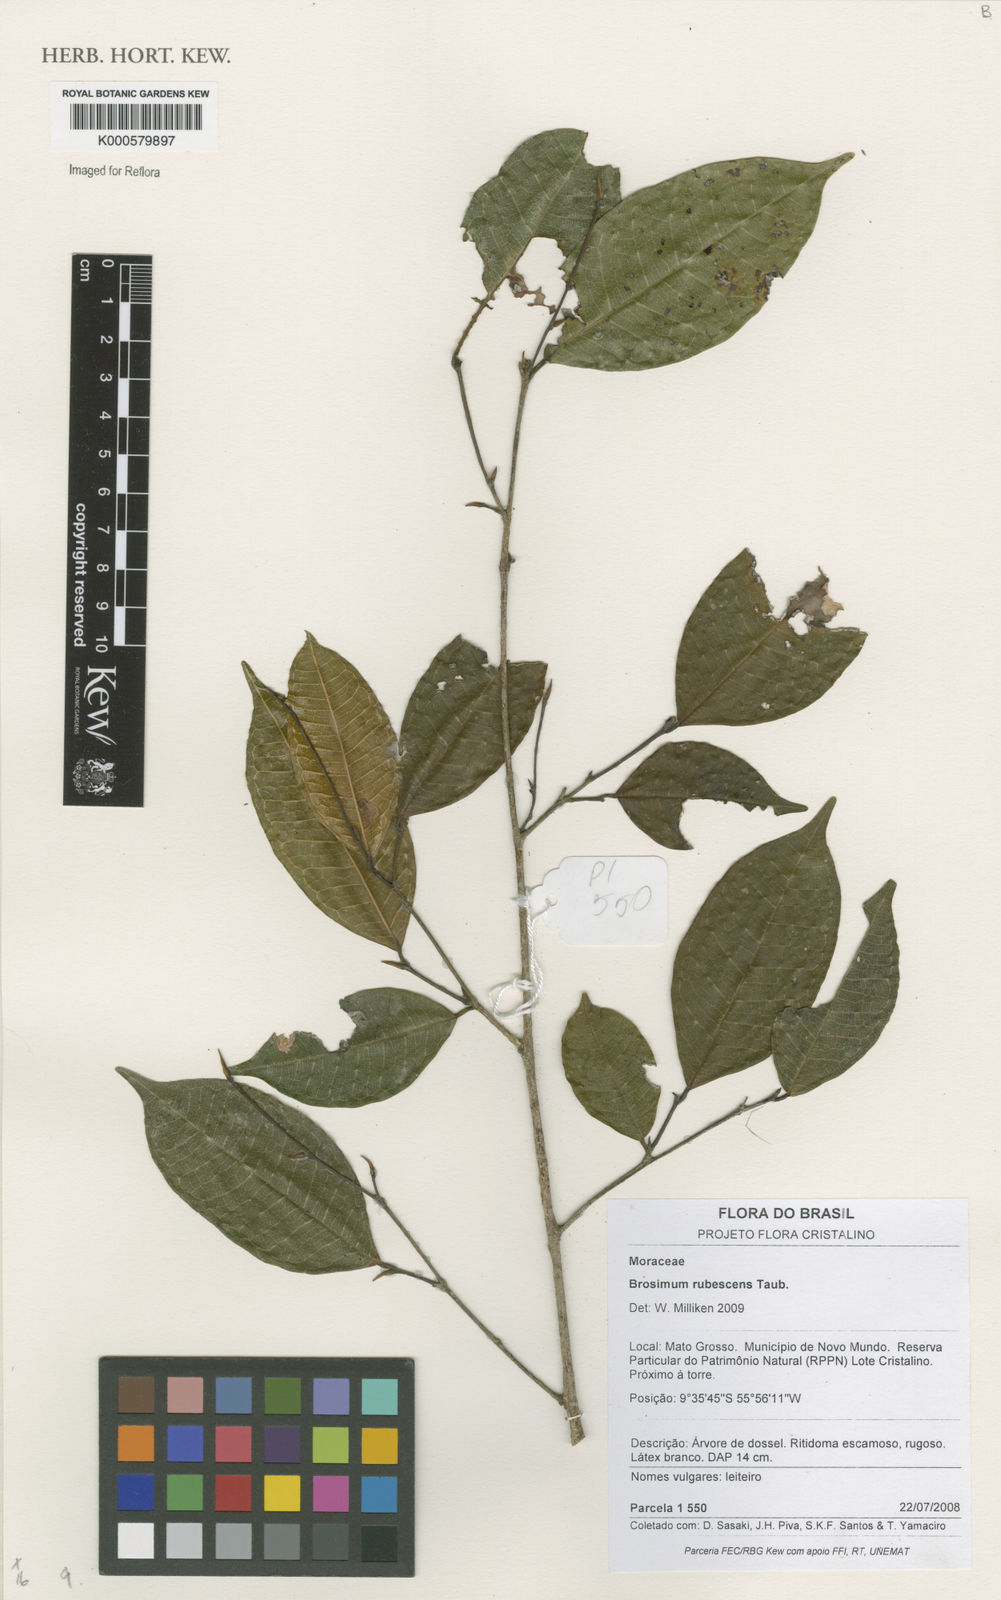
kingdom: Plantae
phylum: Tracheophyta
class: Magnoliopsida
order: Rosales
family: Moraceae
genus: Brosimum
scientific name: Brosimum rubescens
